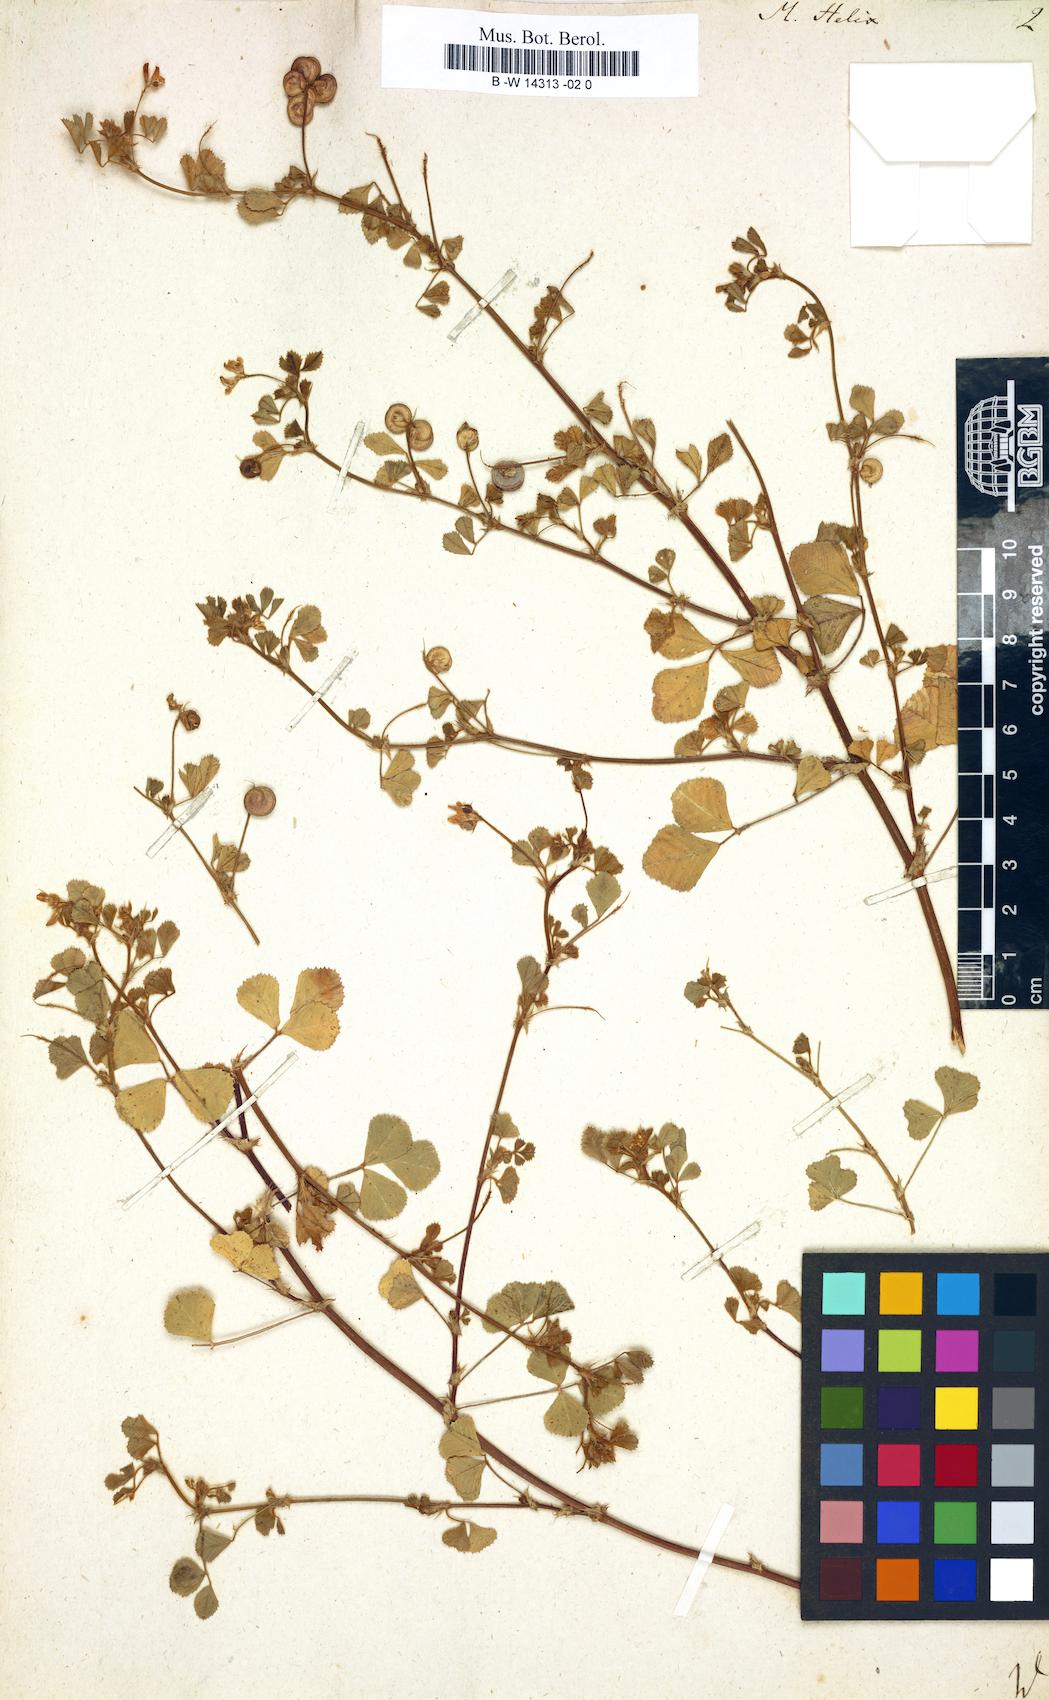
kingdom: Plantae
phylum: Tracheophyta
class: Magnoliopsida
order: Fabales
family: Fabaceae
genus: Medicago
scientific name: Medicago tornata
